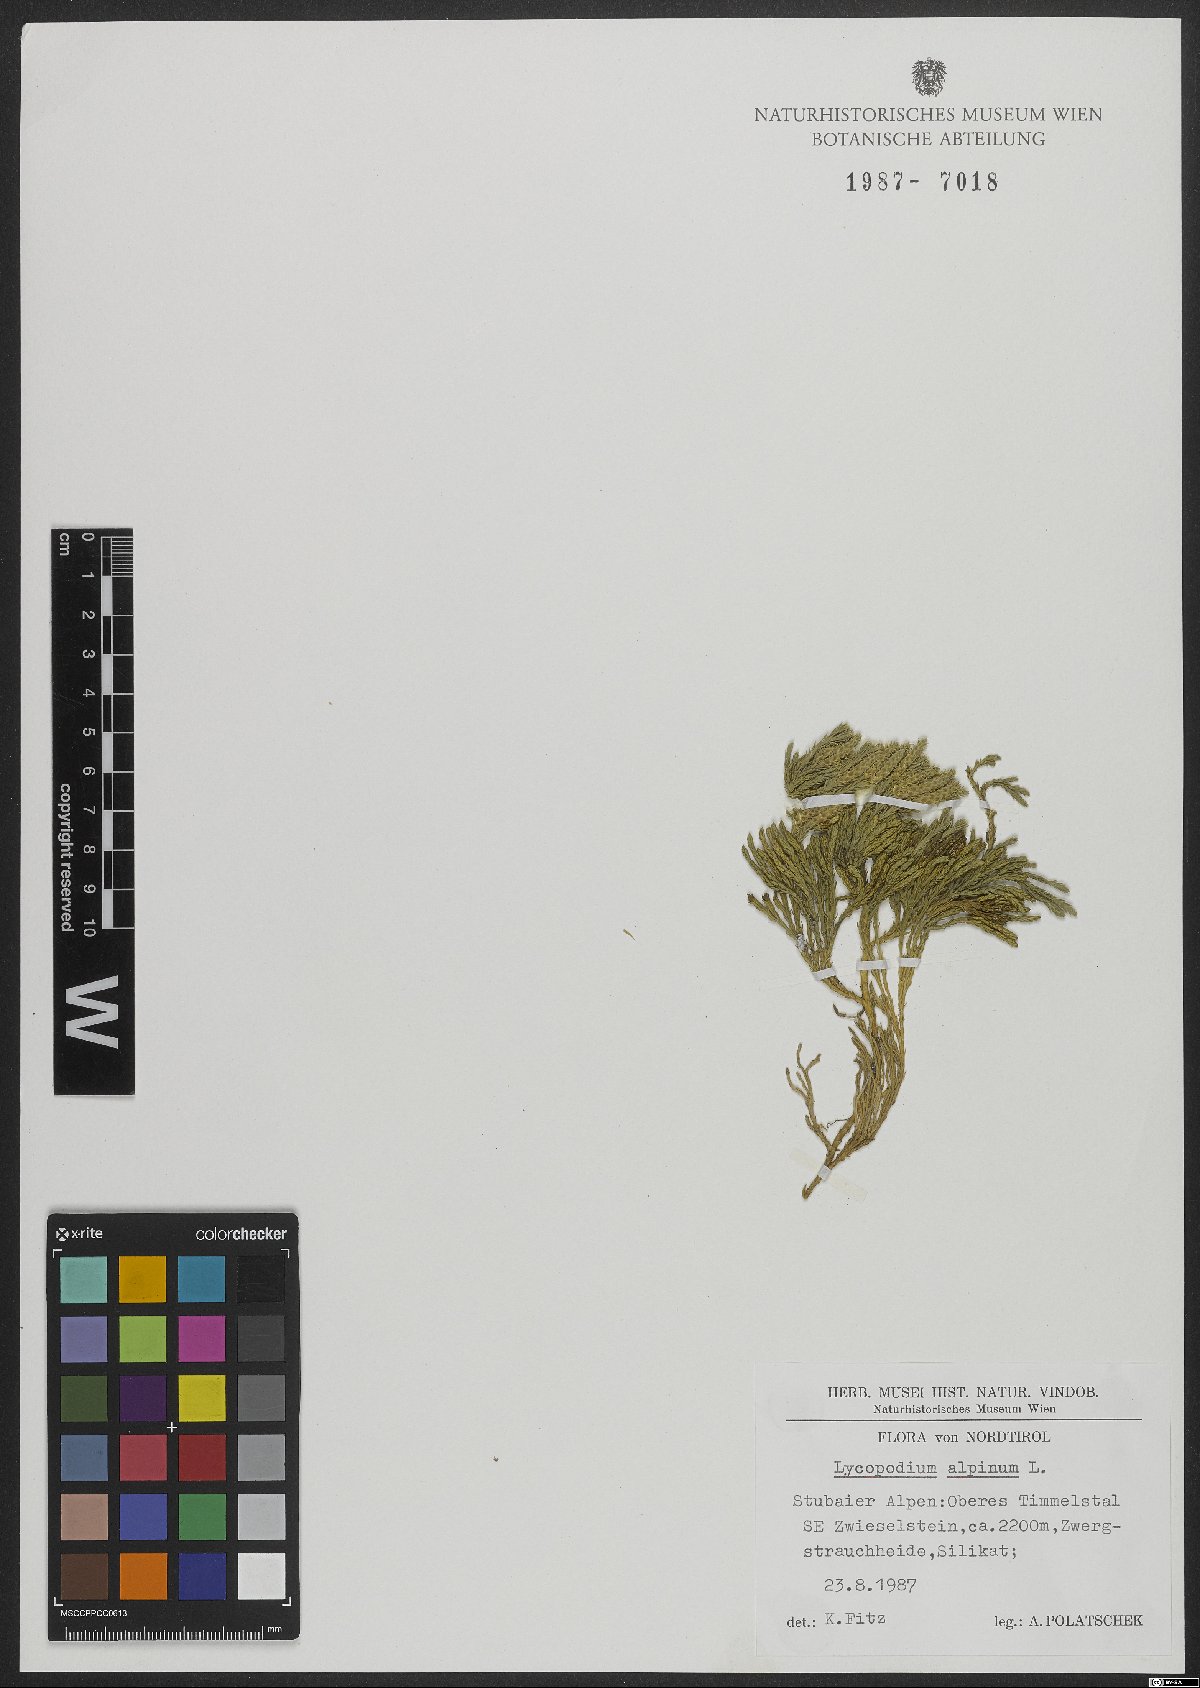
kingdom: Plantae
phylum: Tracheophyta
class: Lycopodiopsida
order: Lycopodiales
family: Lycopodiaceae
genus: Diphasiastrum
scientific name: Diphasiastrum alpinum
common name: Alpine clubmoss
